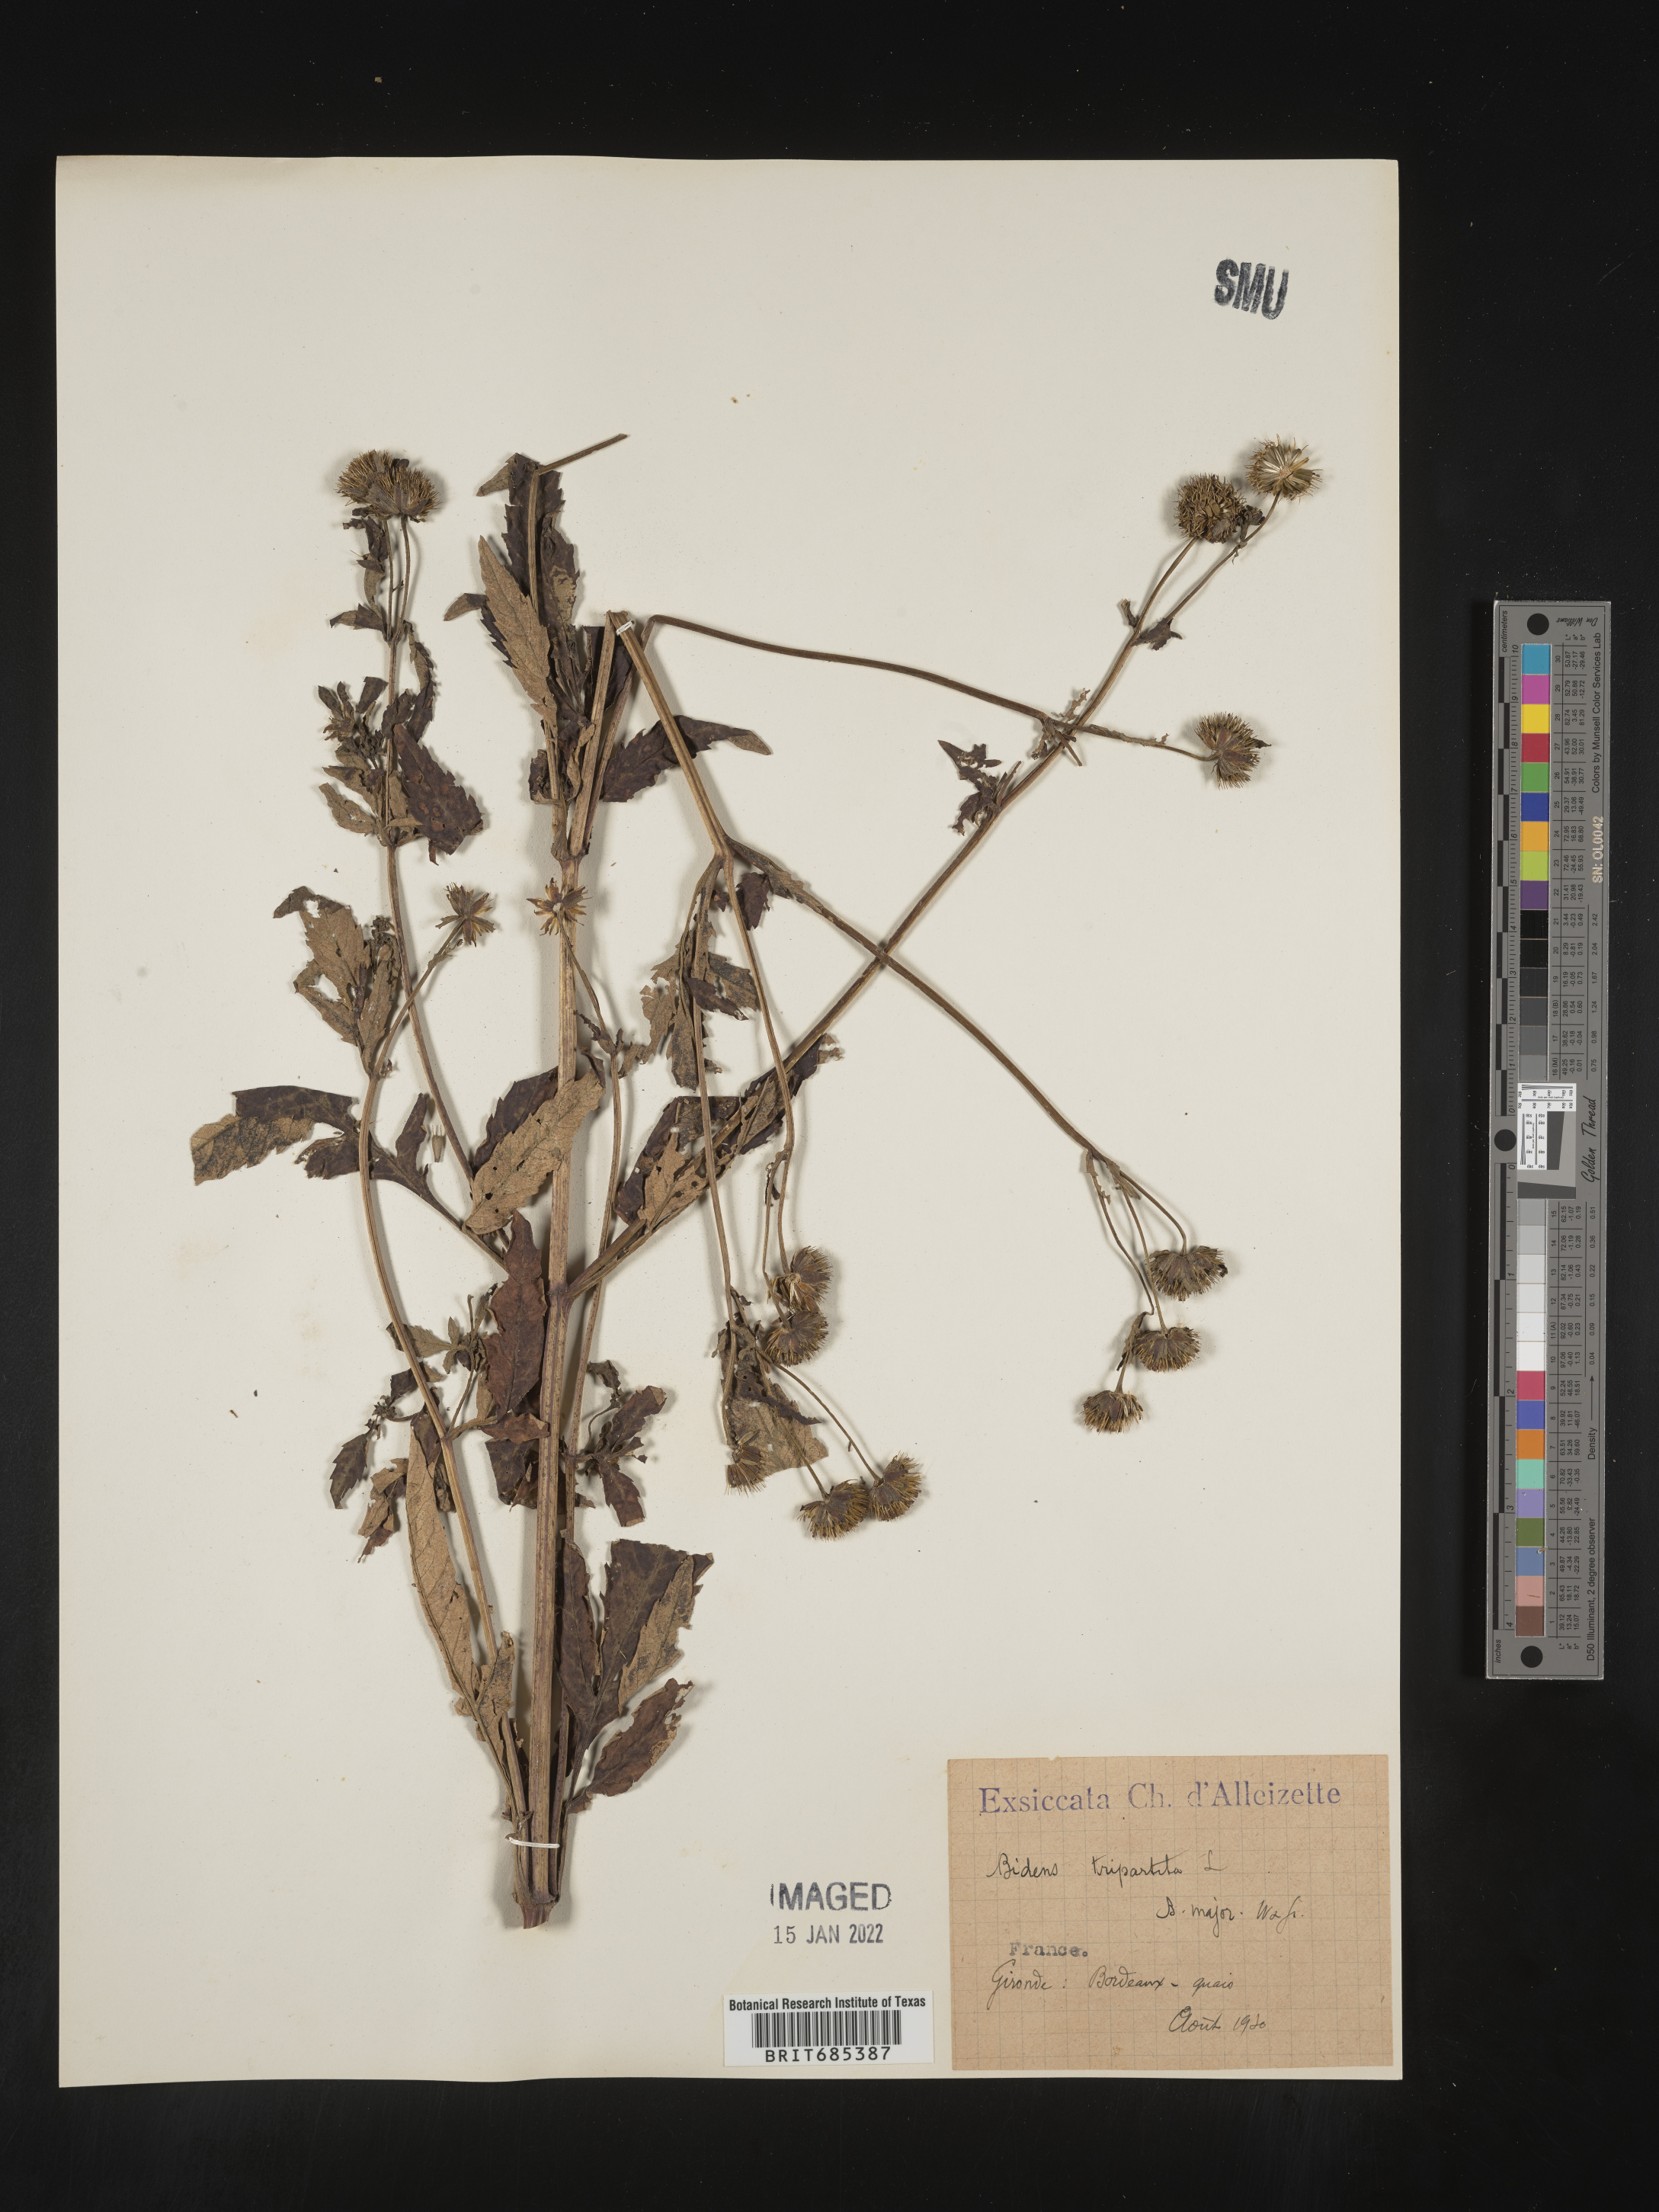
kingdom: Plantae
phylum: Tracheophyta
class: Magnoliopsida
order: Asterales
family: Asteraceae
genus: Bidens
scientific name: Bidens
